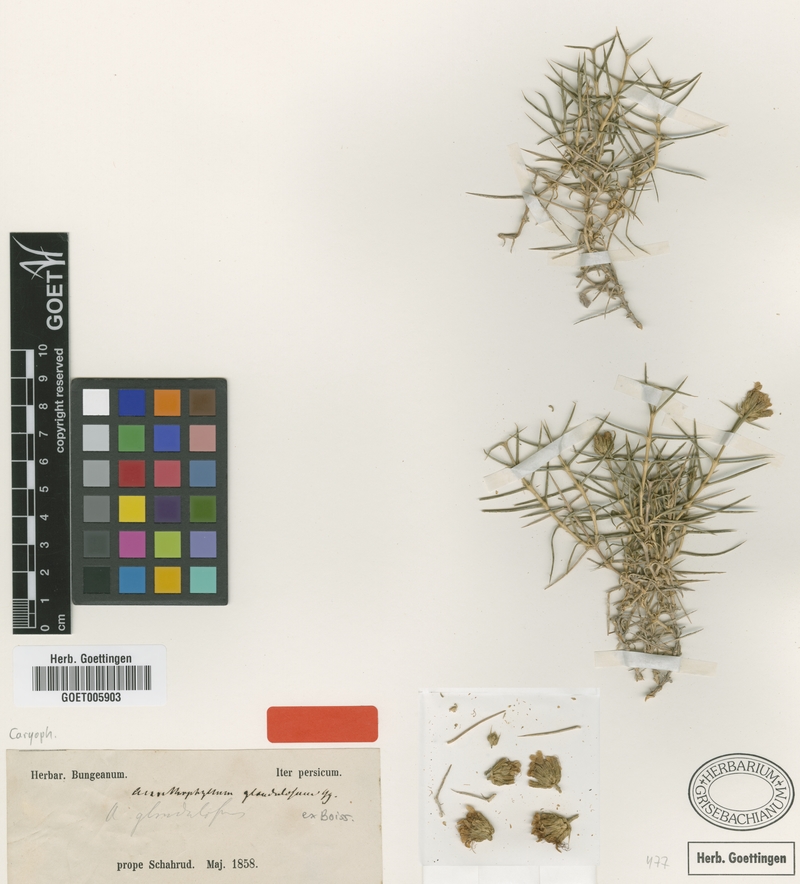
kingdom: Plantae
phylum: Tracheophyta
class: Magnoliopsida
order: Caryophyllales
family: Caryophyllaceae
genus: Acanthophyllum
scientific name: Acanthophyllum glandulosum
